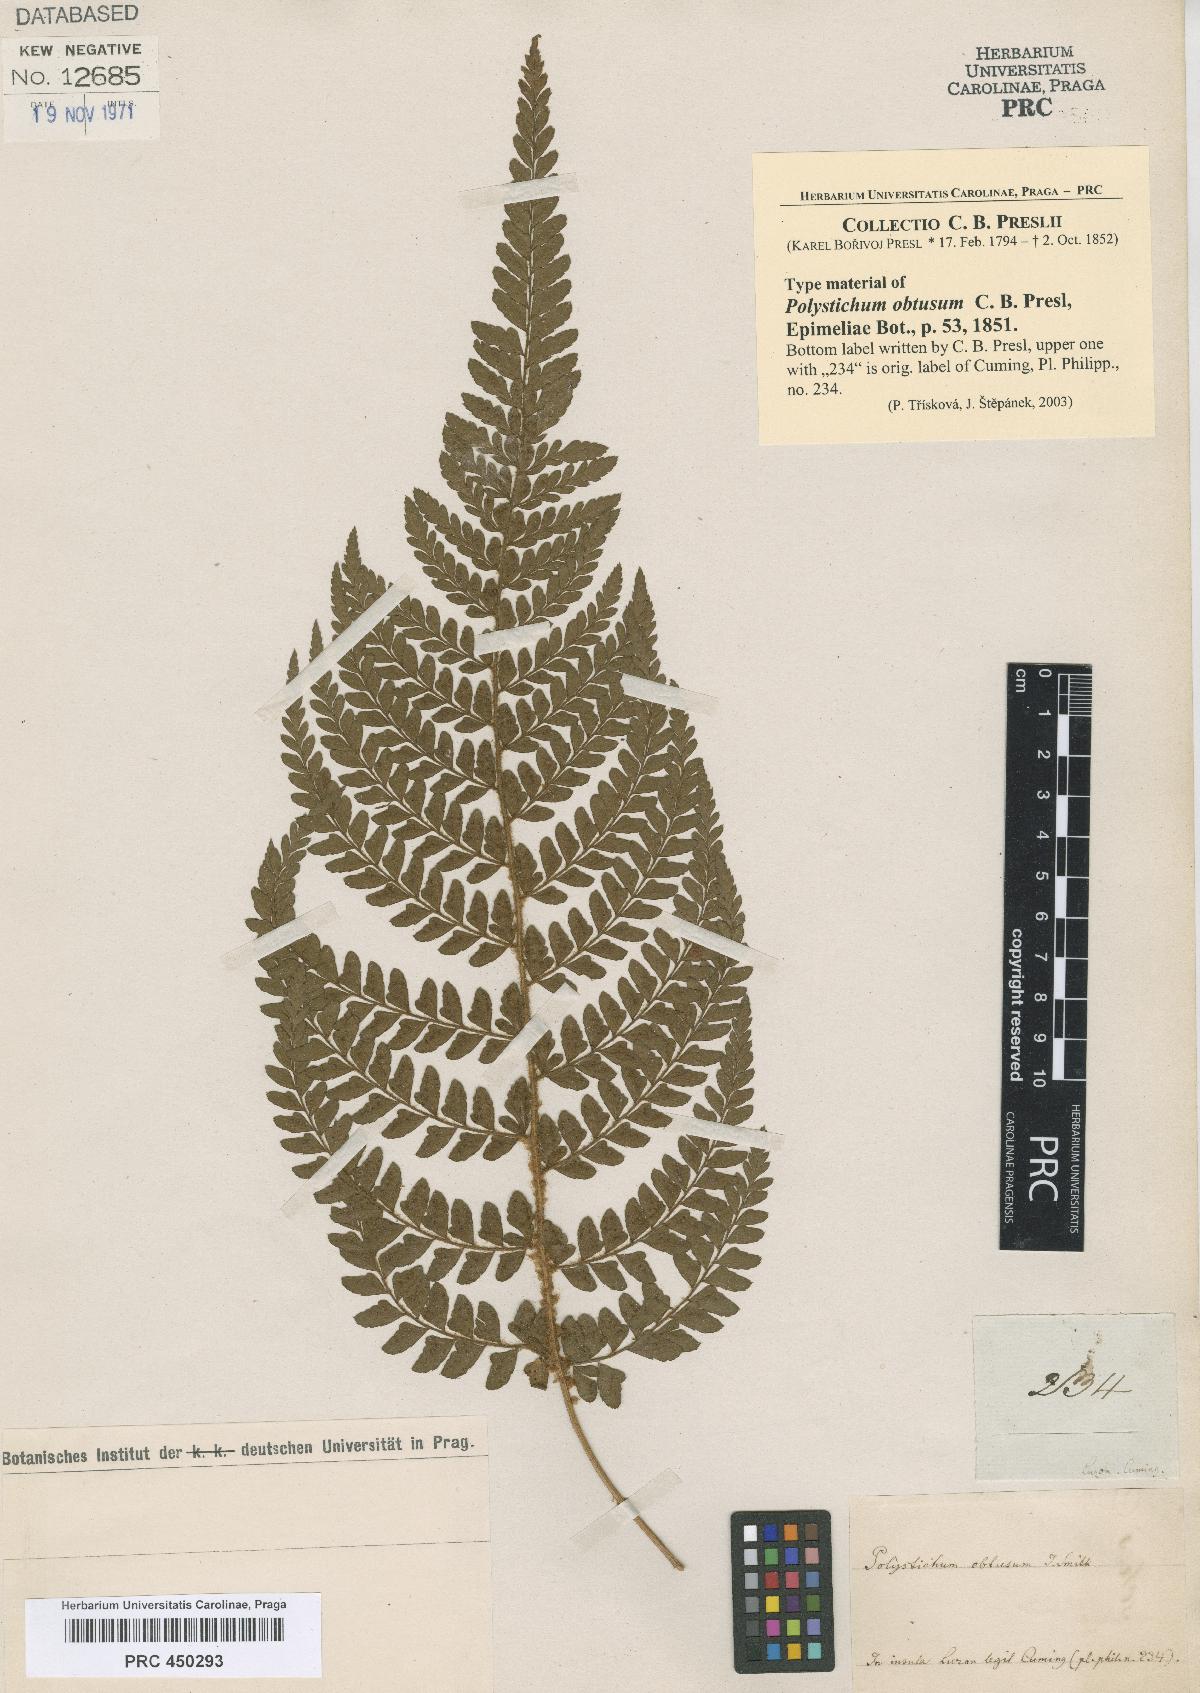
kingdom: Plantae
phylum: Tracheophyta
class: Polypodiopsida
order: Polypodiales
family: Dryopteridaceae
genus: Polystichum
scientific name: Polystichum obtusum
